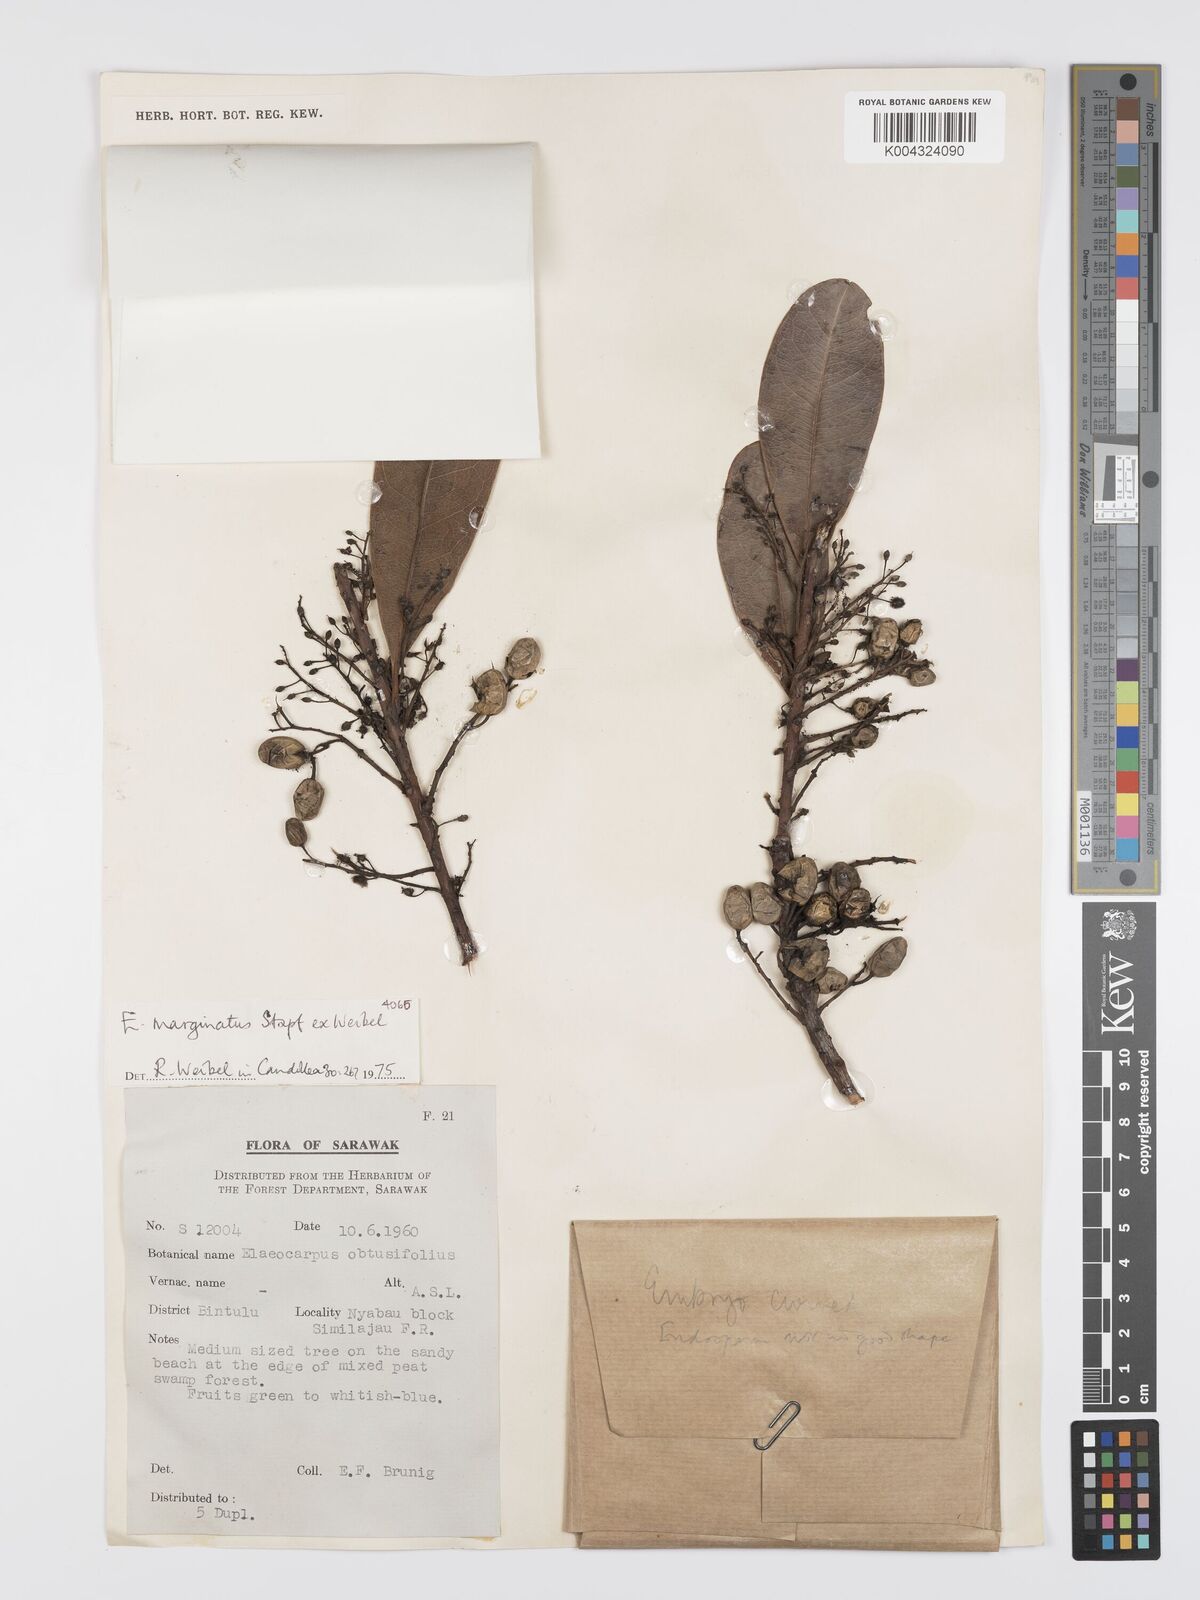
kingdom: Plantae
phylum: Tracheophyta
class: Magnoliopsida
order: Oxalidales
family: Elaeocarpaceae
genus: Elaeocarpus
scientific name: Elaeocarpus marginatus
